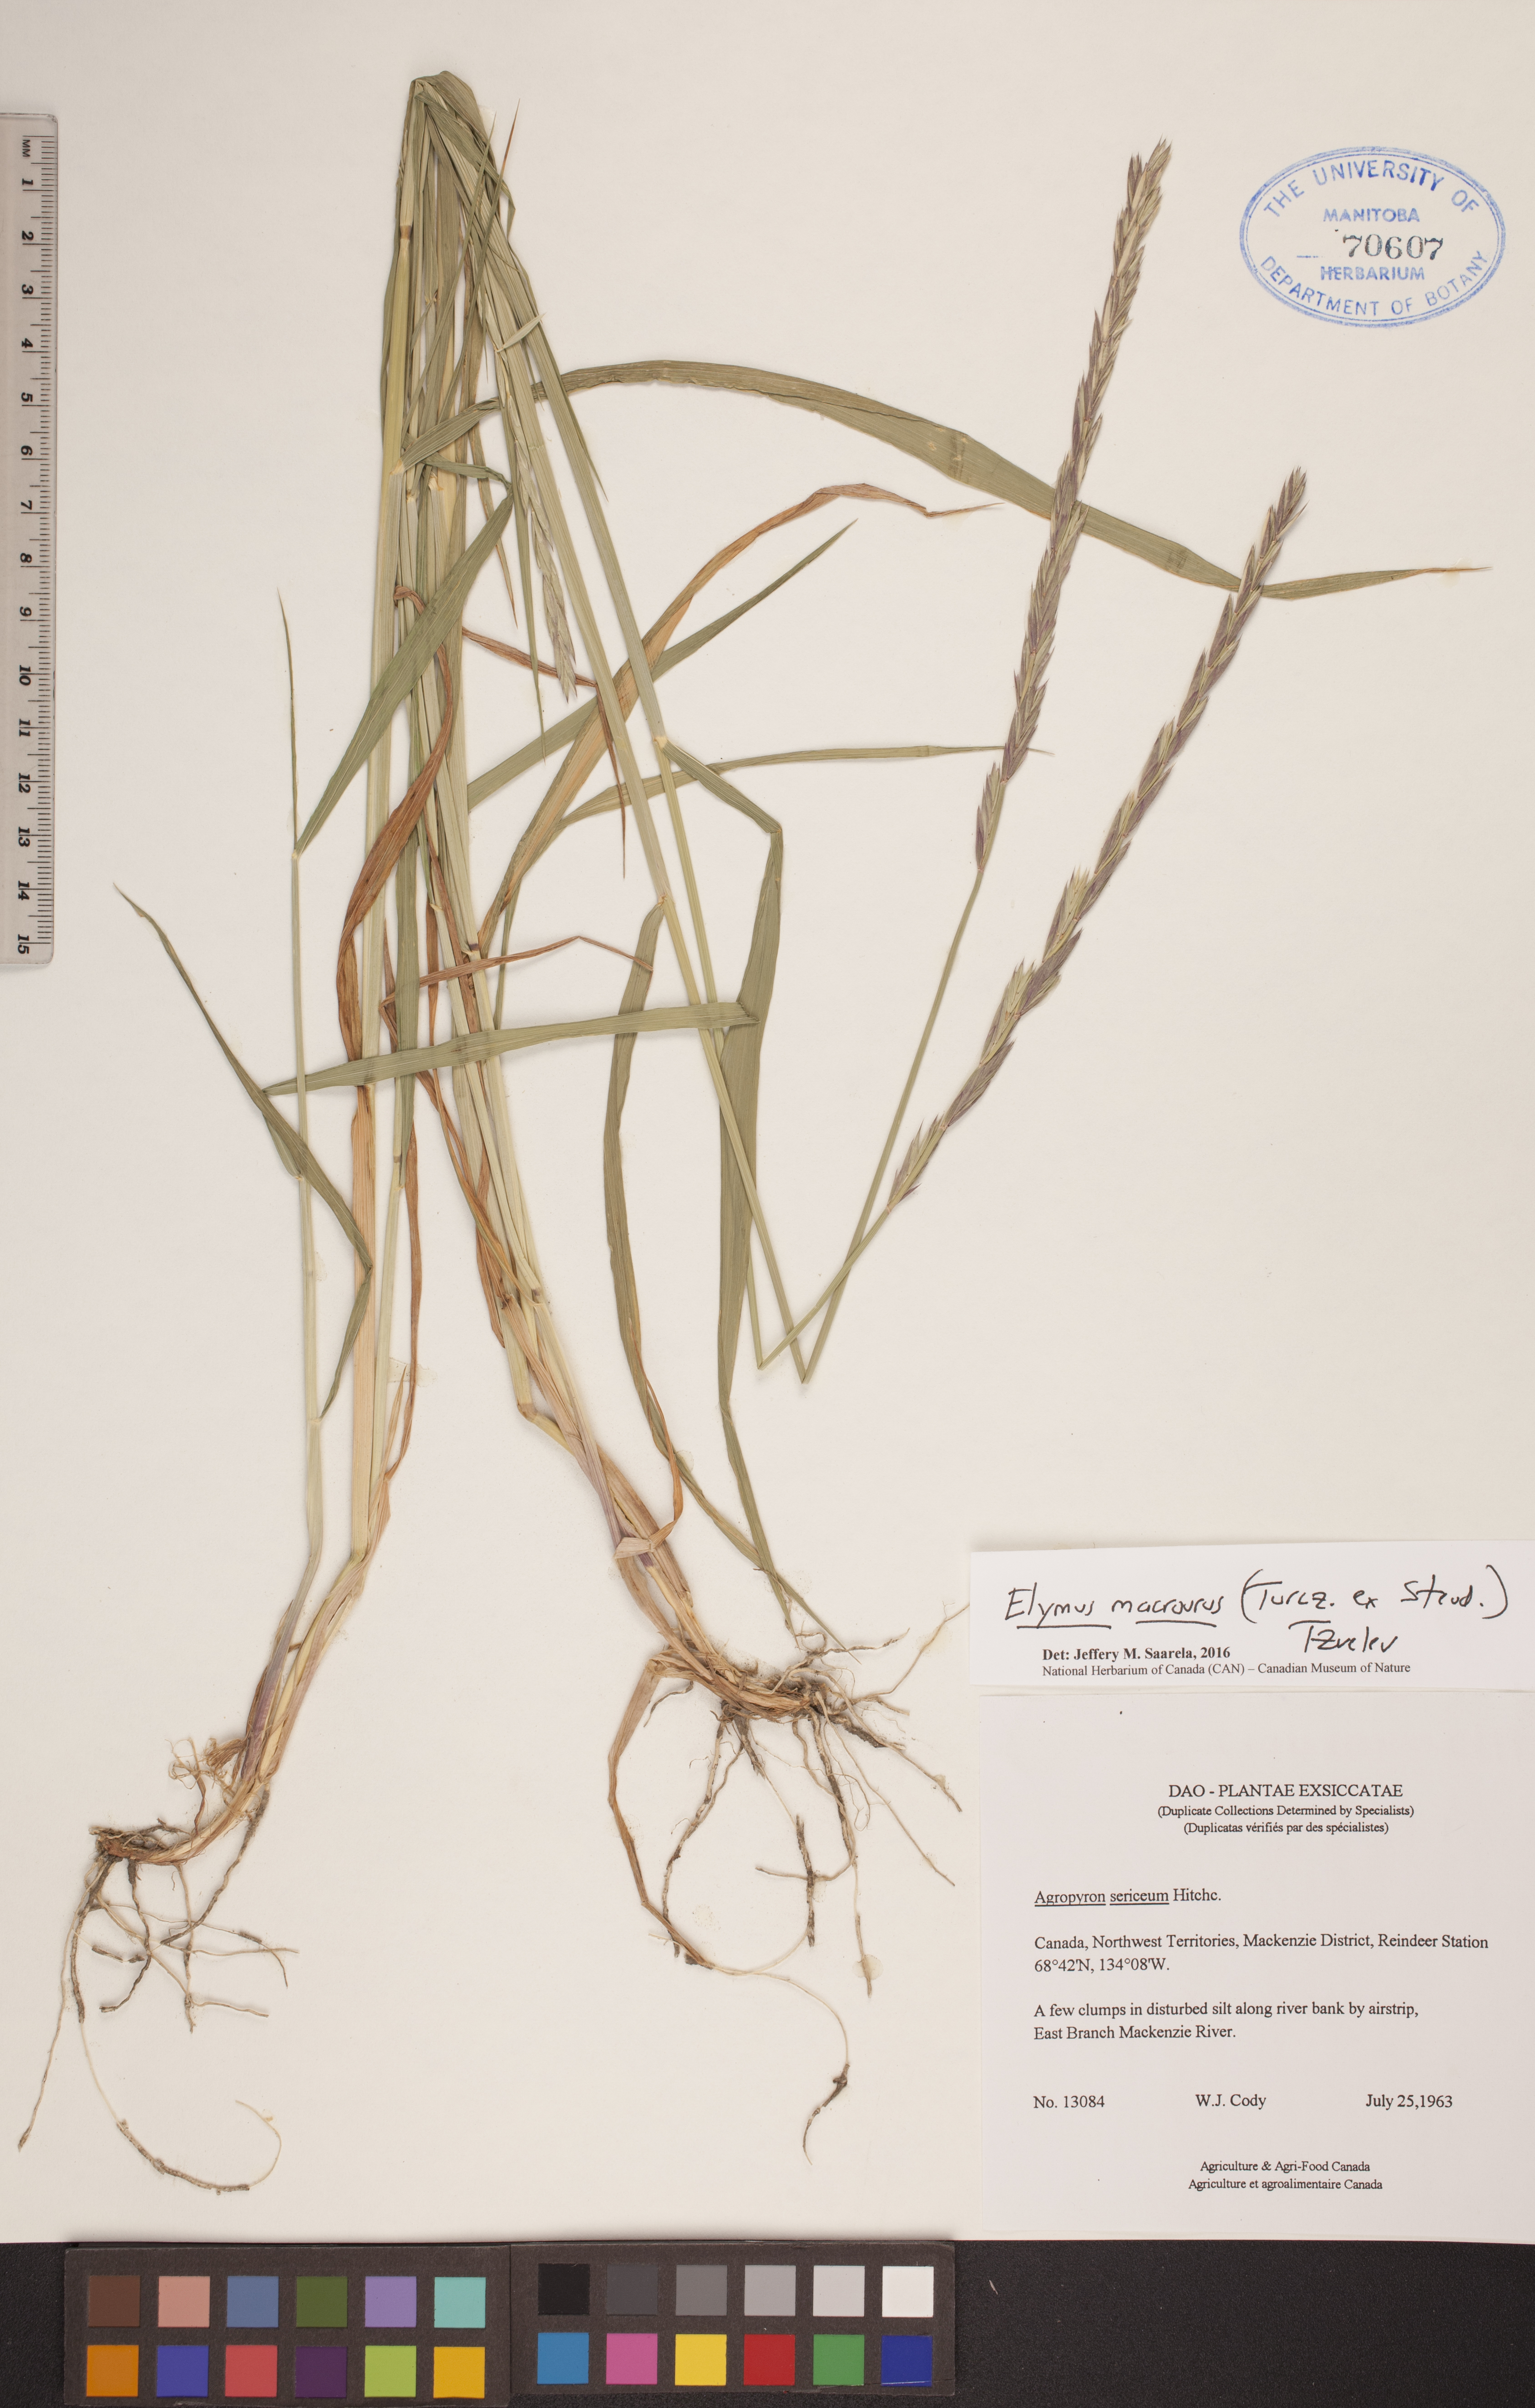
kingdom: Plantae
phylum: Tracheophyta
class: Liliopsida
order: Poales
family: Poaceae
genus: Elymus
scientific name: Elymus macrourus
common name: Northern wheatgrass
